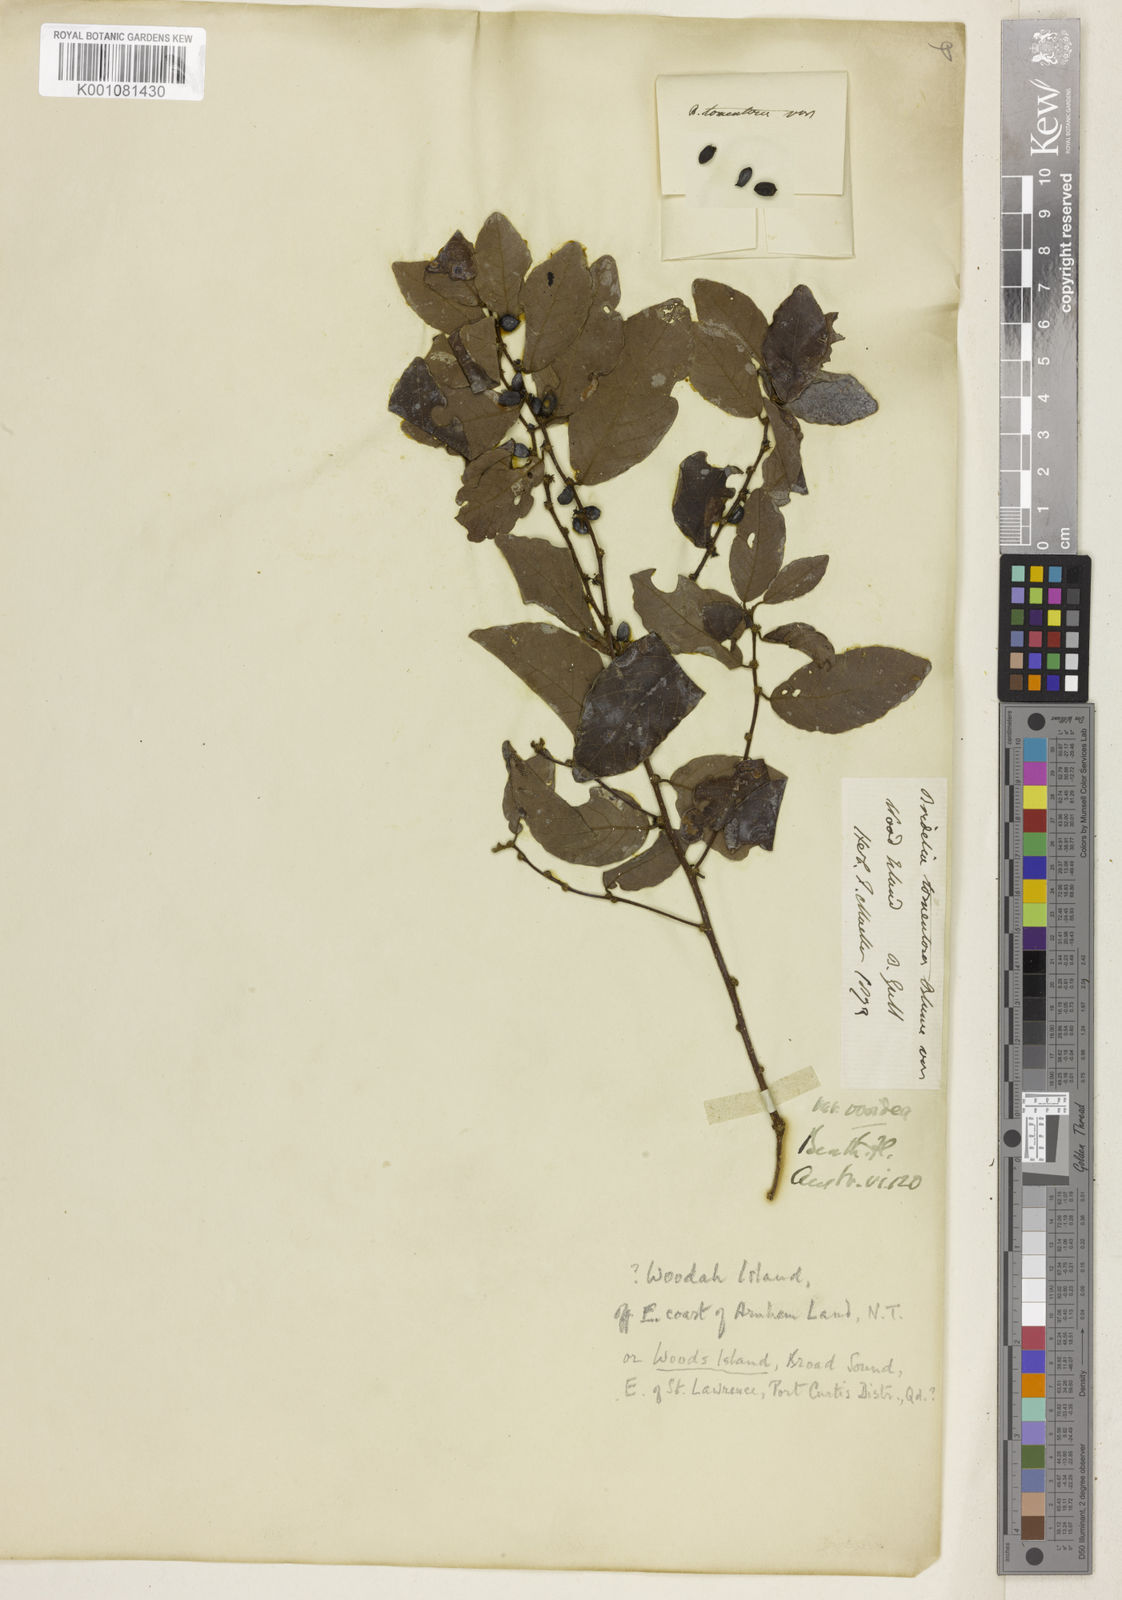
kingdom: Plantae
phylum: Tracheophyta
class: Magnoliopsida
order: Malpighiales
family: Phyllanthaceae
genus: Bridelia
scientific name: Bridelia tomentosa
